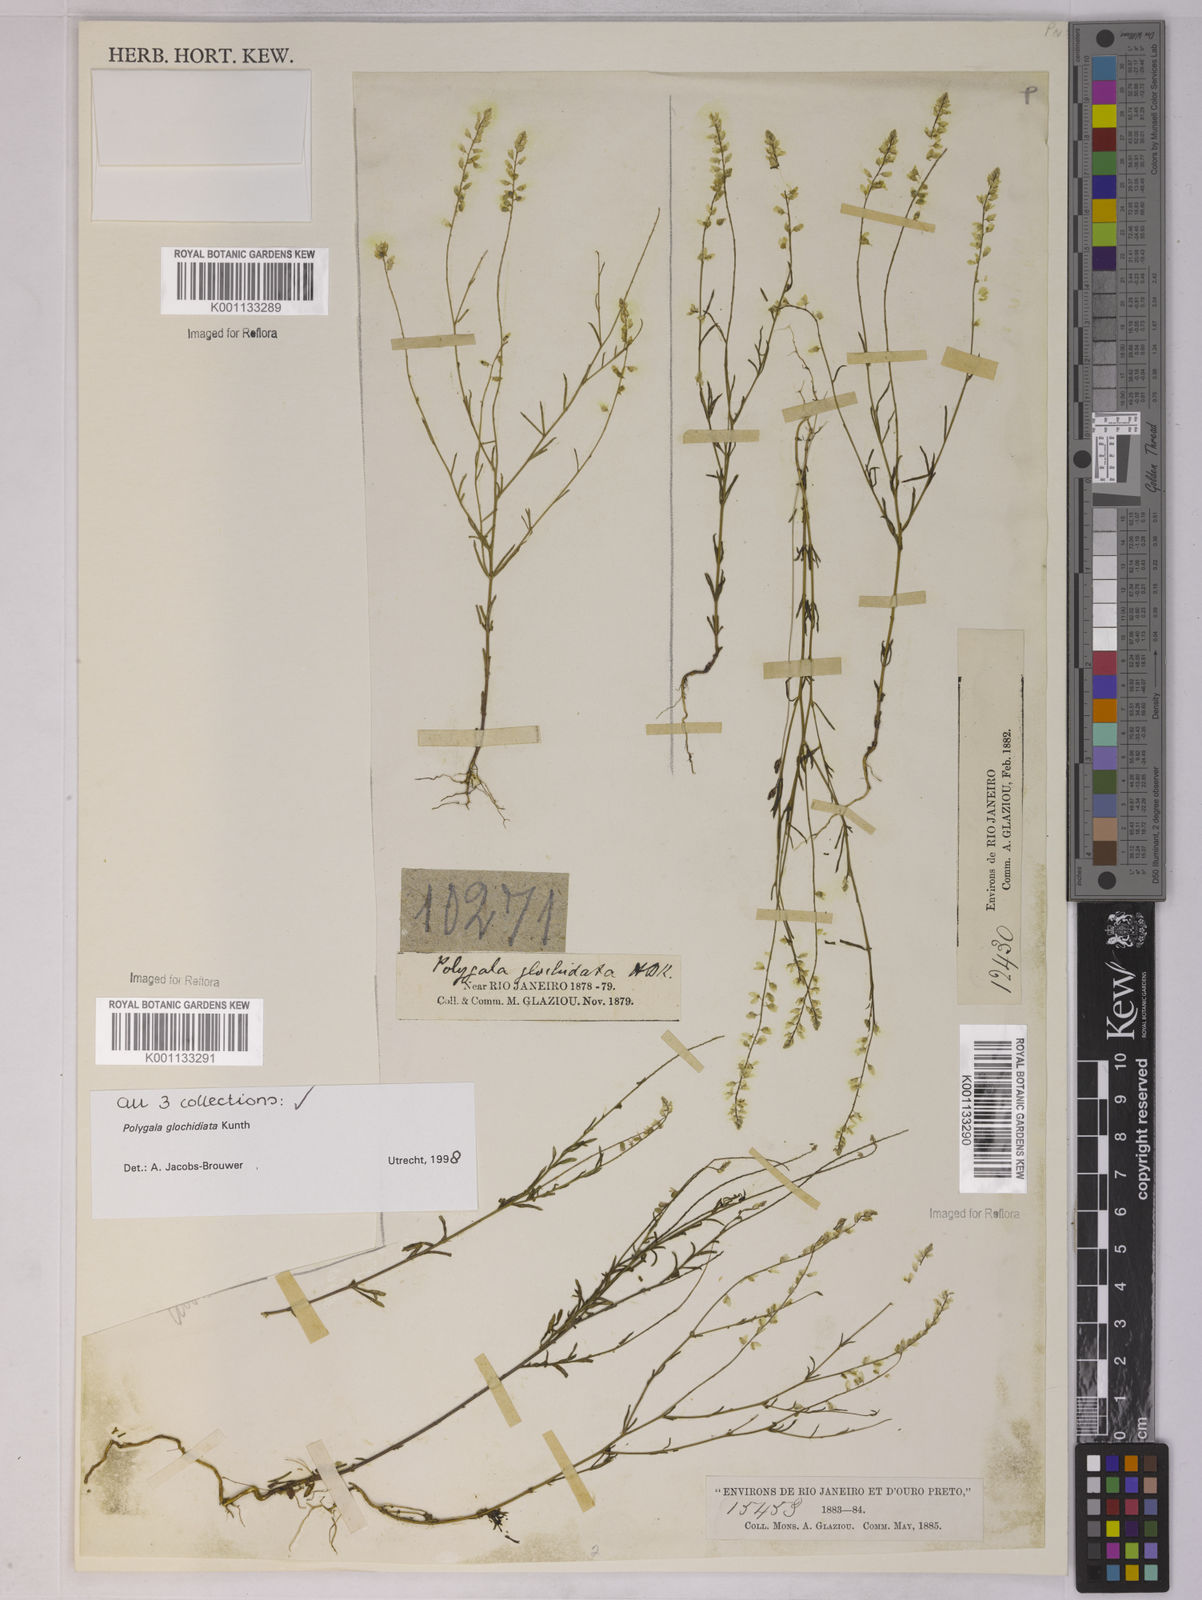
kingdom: Plantae
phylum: Tracheophyta
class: Magnoliopsida
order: Fabales
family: Polygalaceae
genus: Polygala
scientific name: Polygala glochidiata
